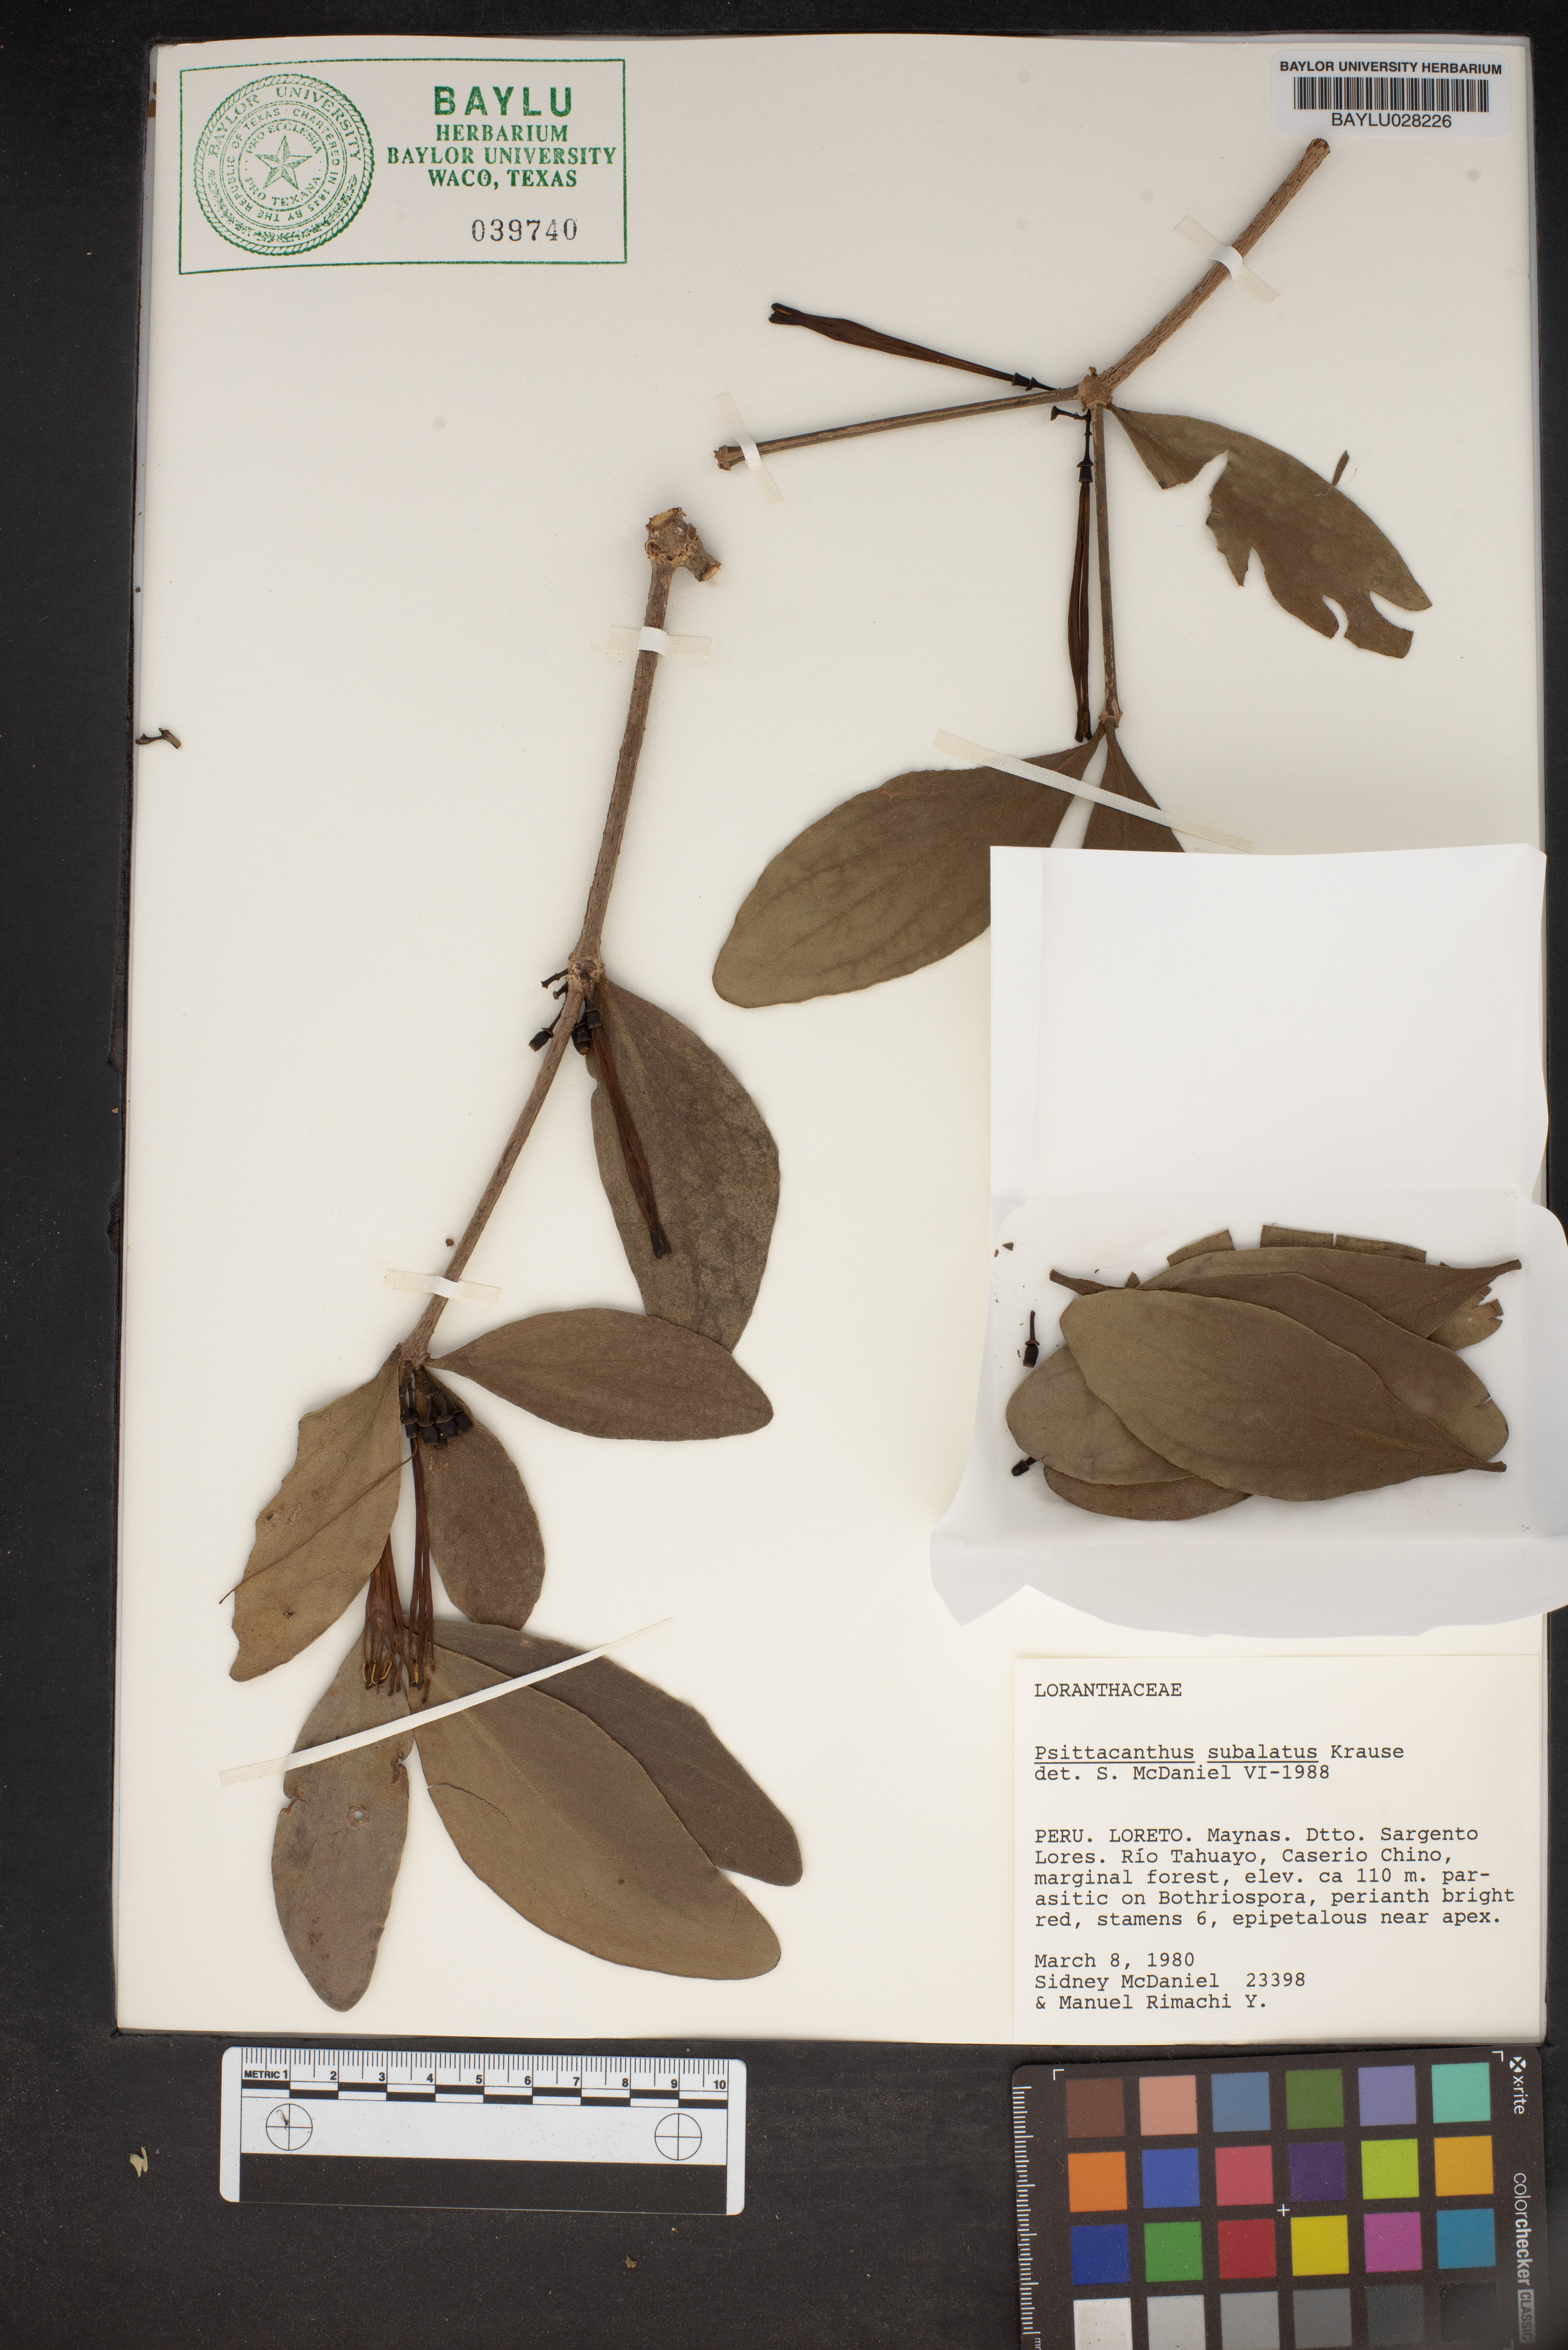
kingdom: Plantae
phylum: Tracheophyta
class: Magnoliopsida
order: Santalales
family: Loranthaceae
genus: Psittacanthus
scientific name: Psittacanthus subalatus
